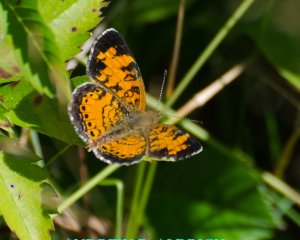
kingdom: Animalia
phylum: Arthropoda
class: Insecta
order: Lepidoptera
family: Nymphalidae
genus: Phyciodes
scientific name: Phyciodes
